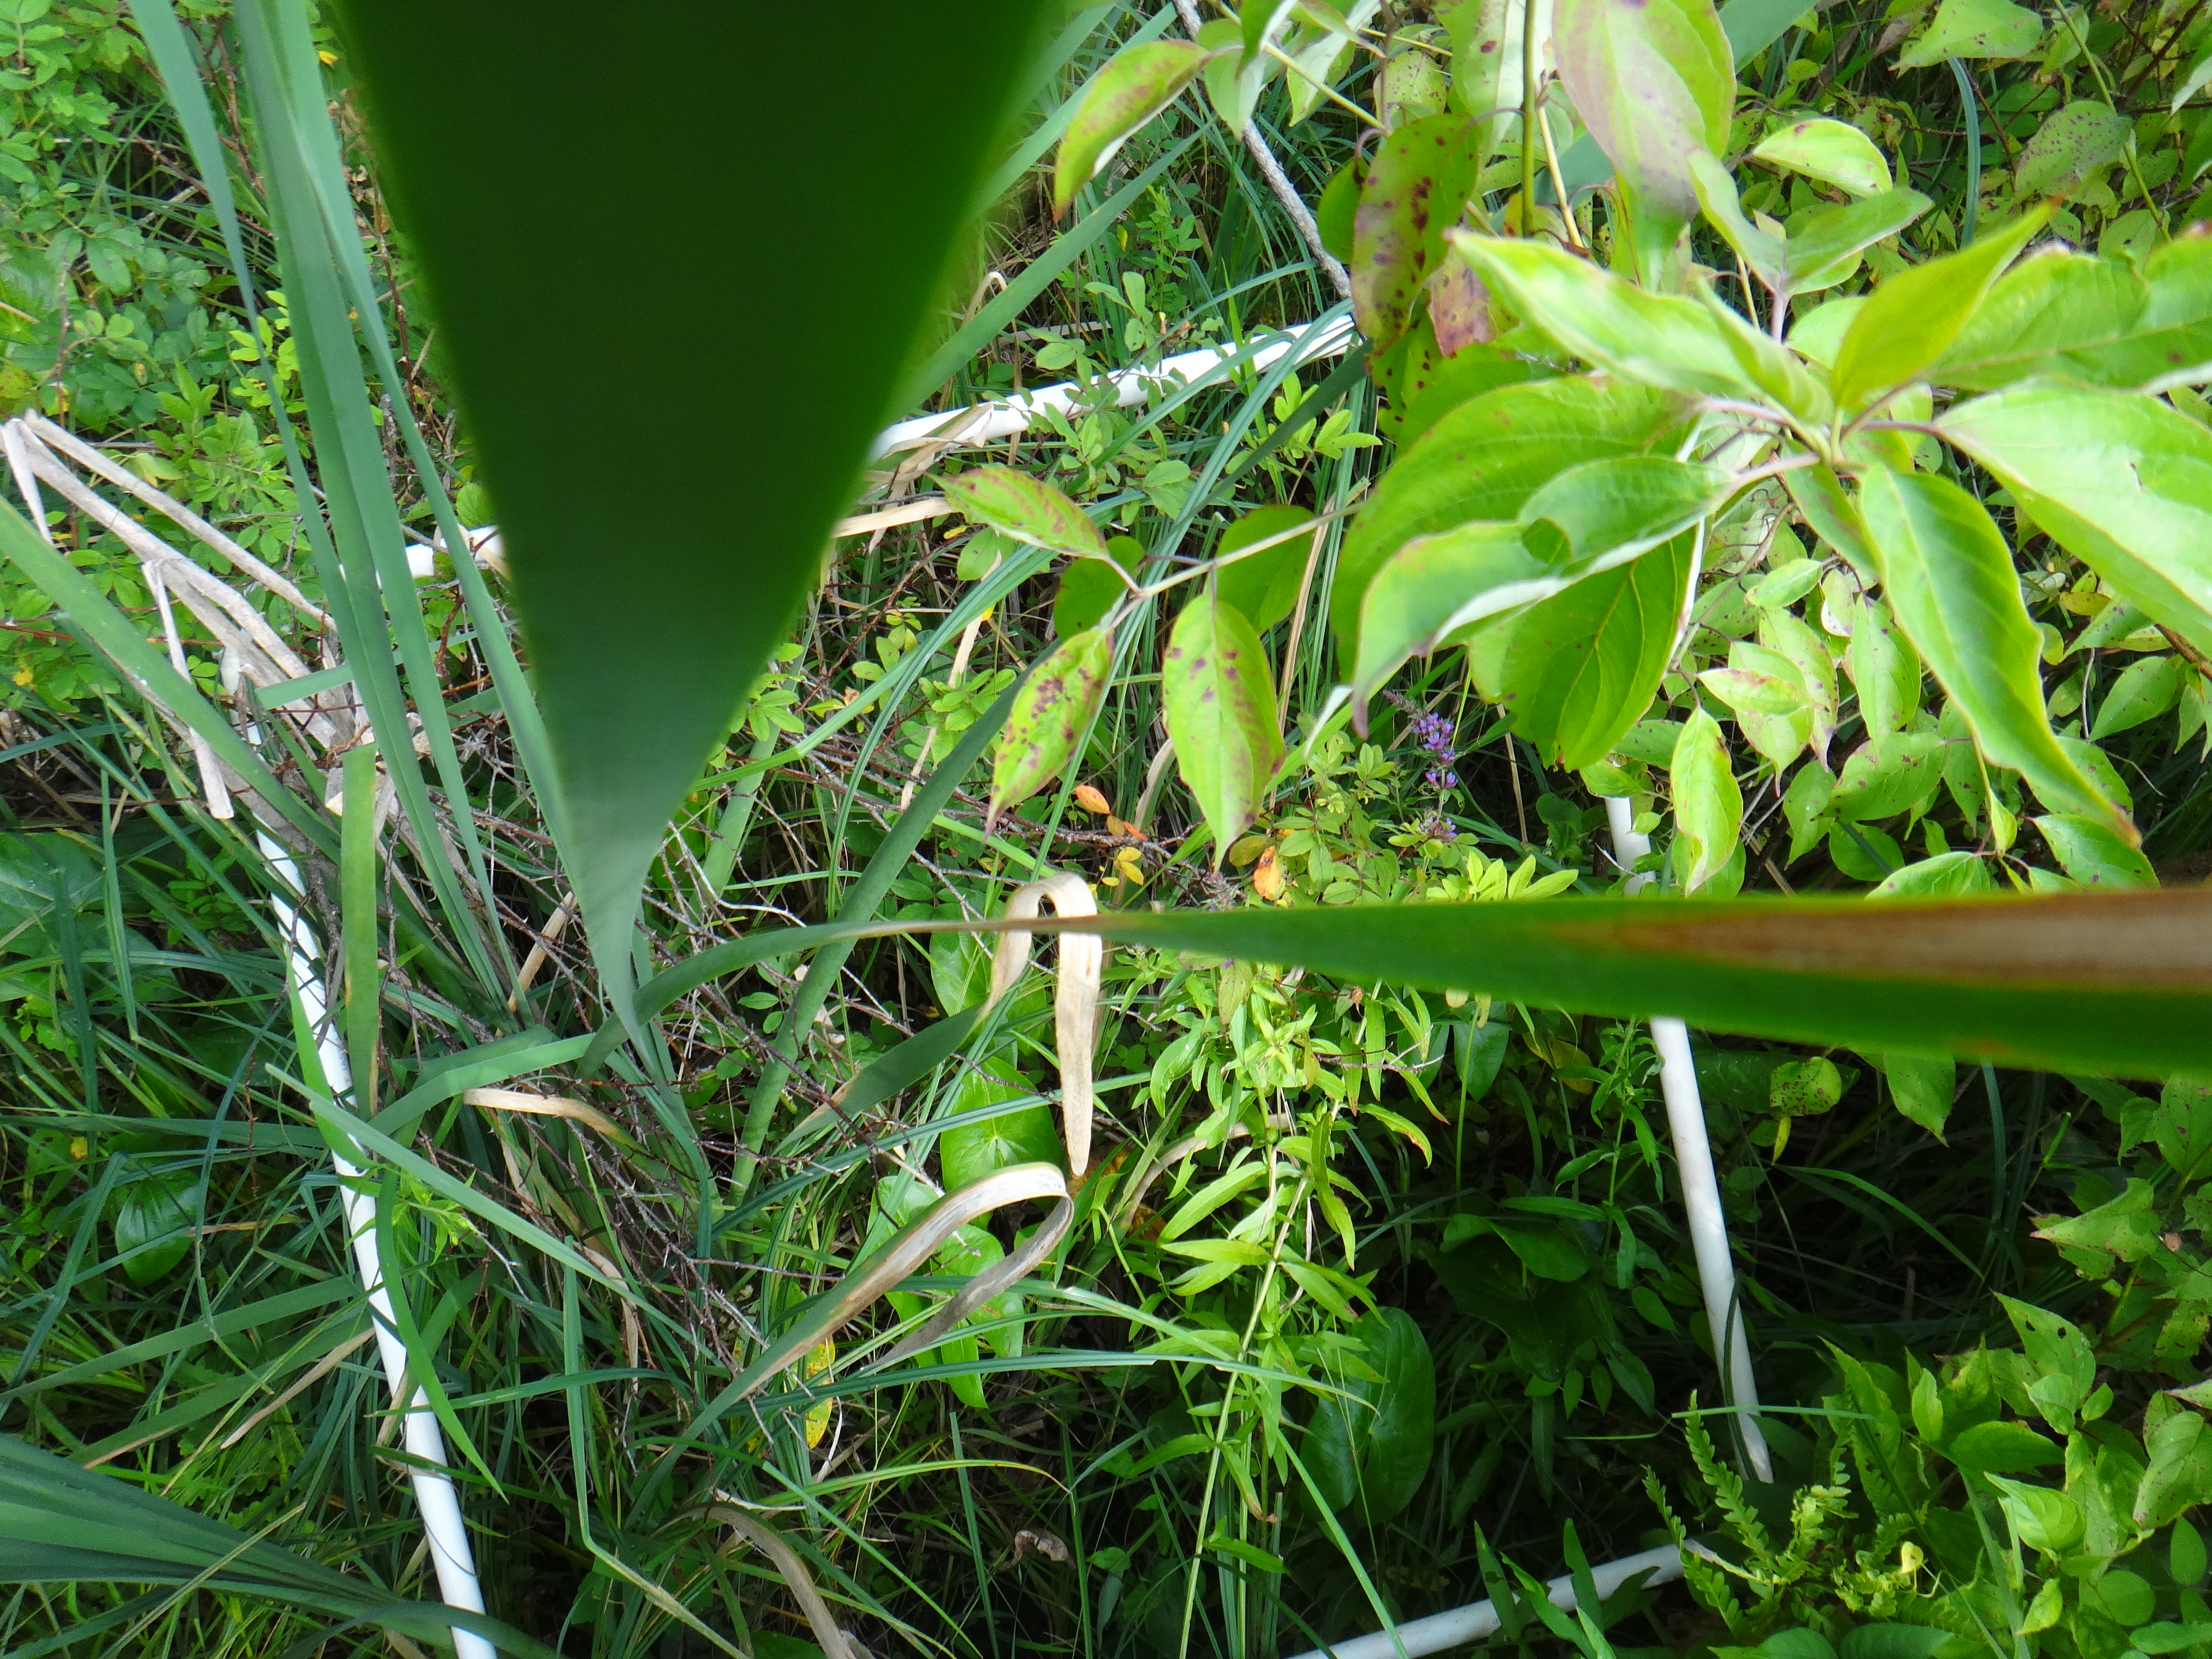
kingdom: Plantae
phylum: Tracheophyta
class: Liliopsida
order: Poales
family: Poaceae
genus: Leersia
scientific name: Leersia oryzoides
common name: Cut-grass
